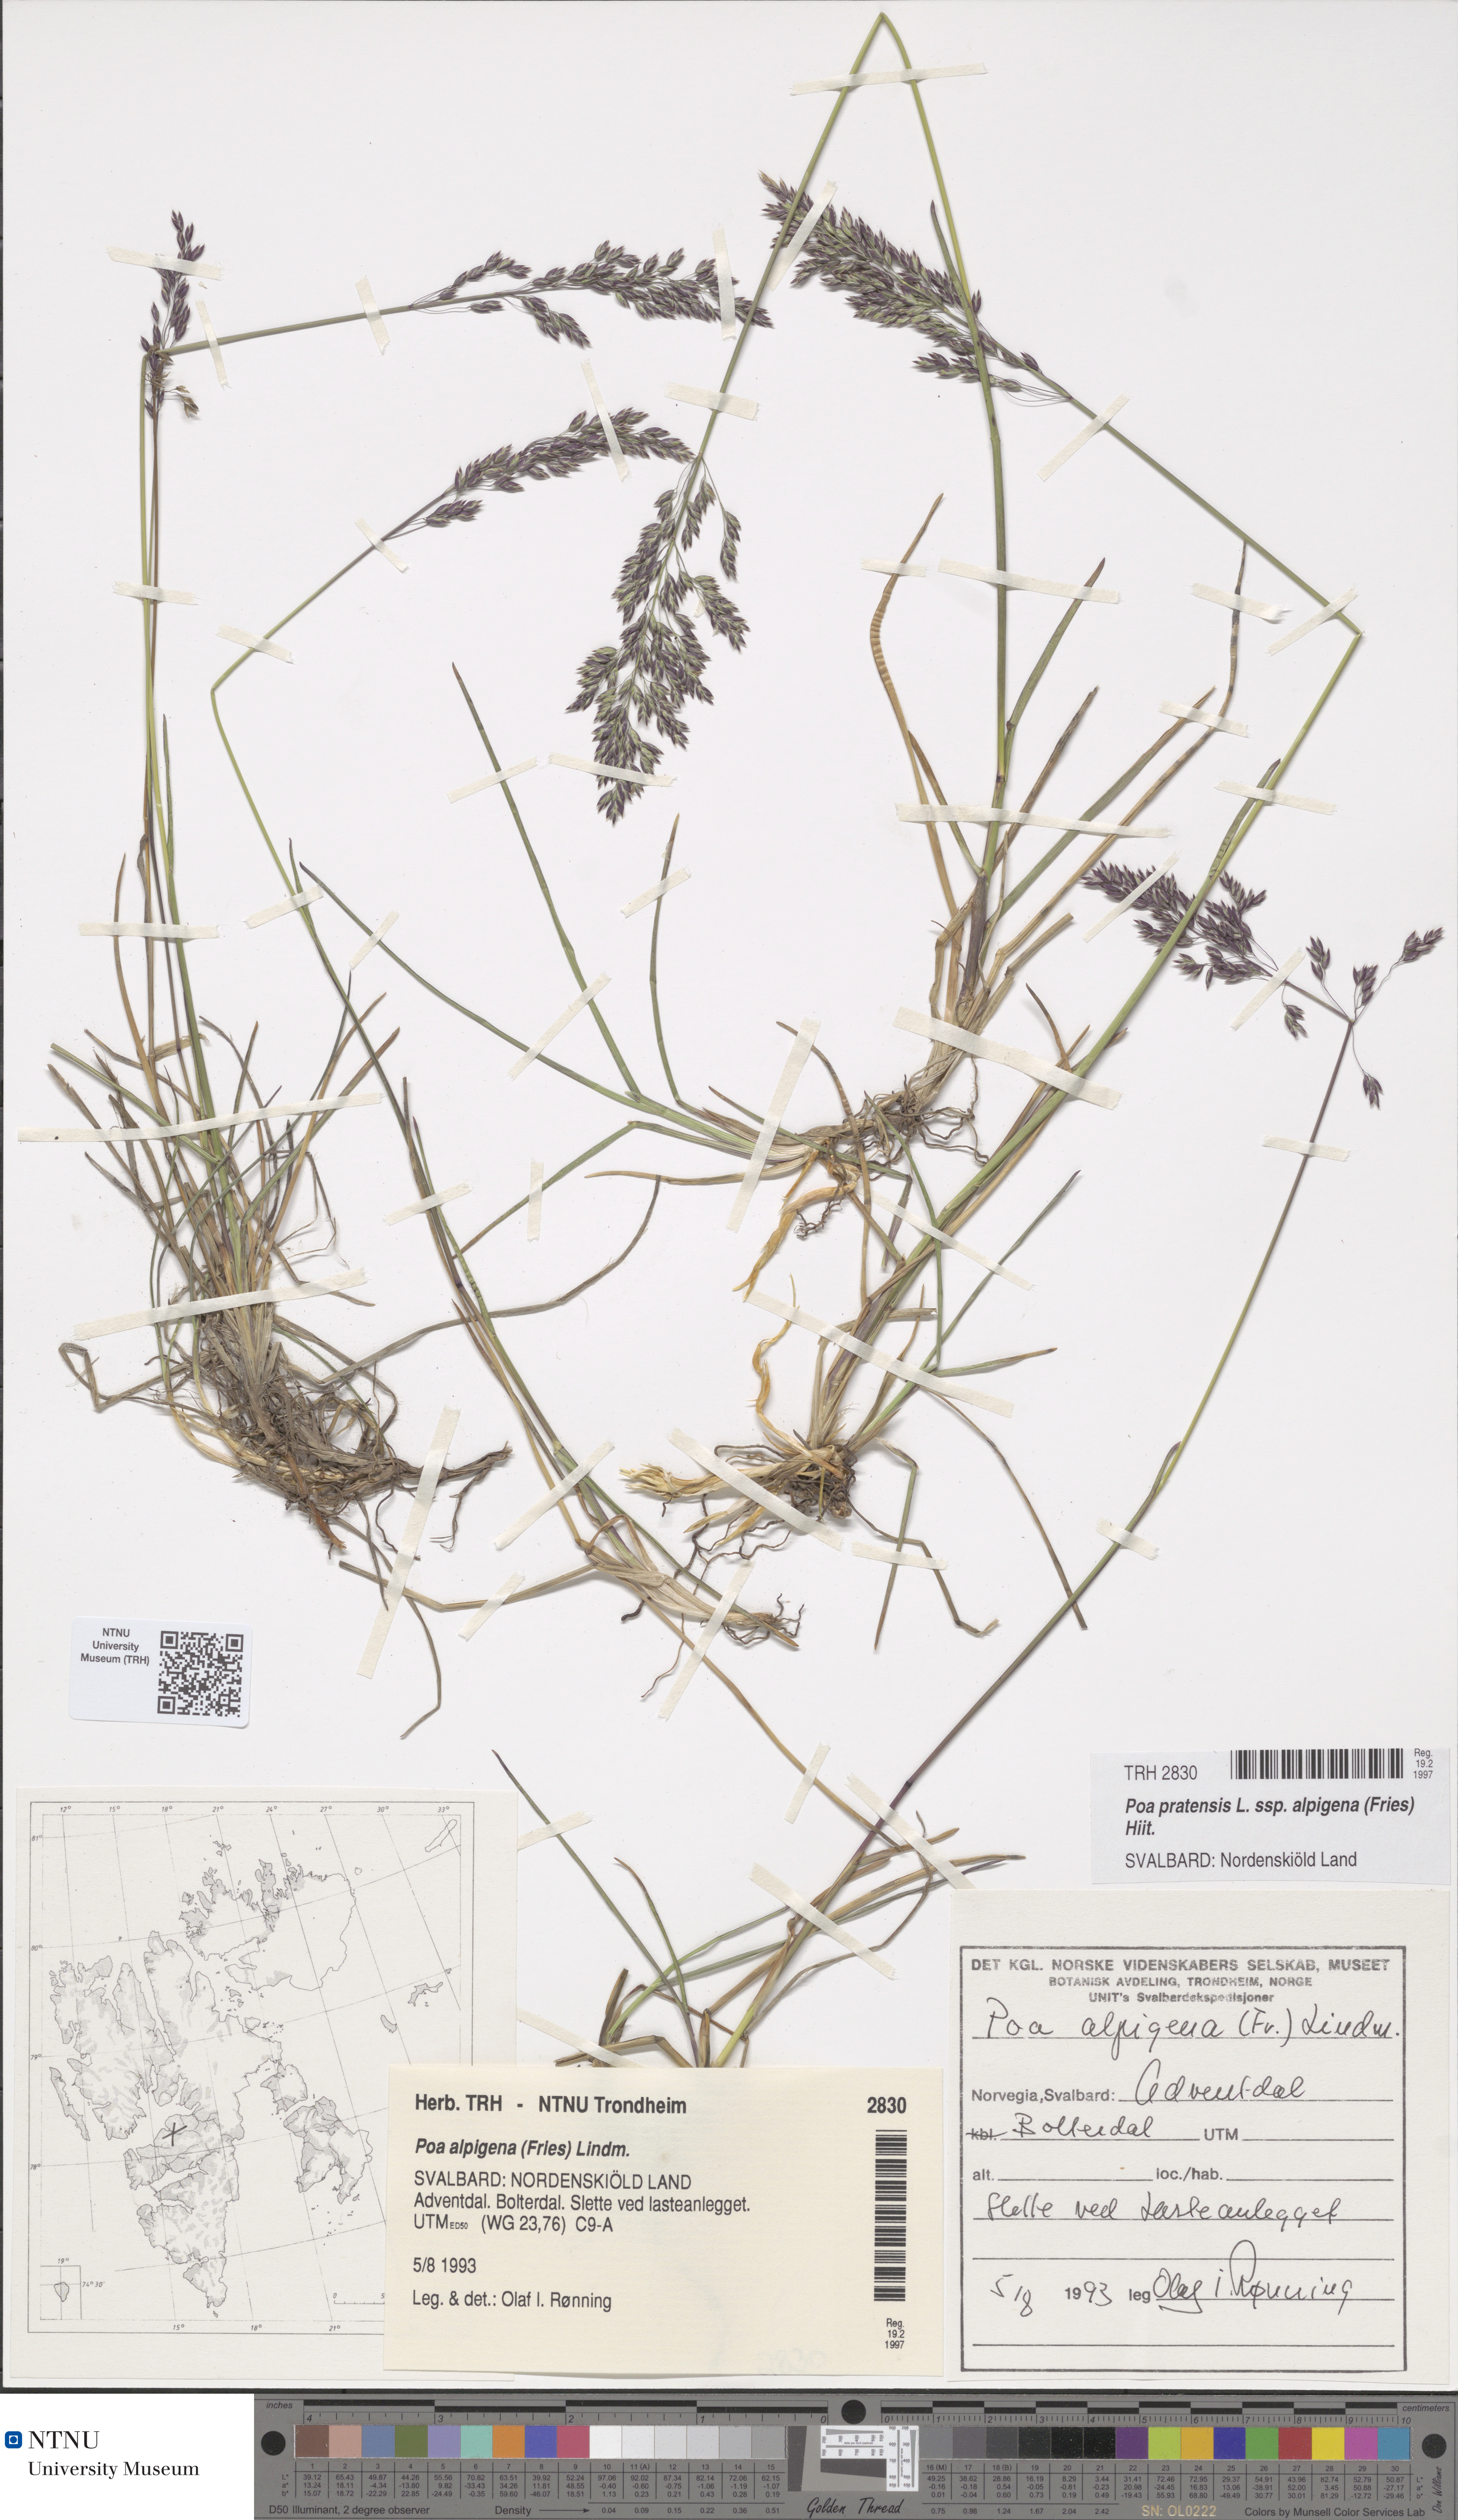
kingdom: Plantae
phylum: Tracheophyta
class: Liliopsida
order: Poales
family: Poaceae
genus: Poa
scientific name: Poa alpigena
